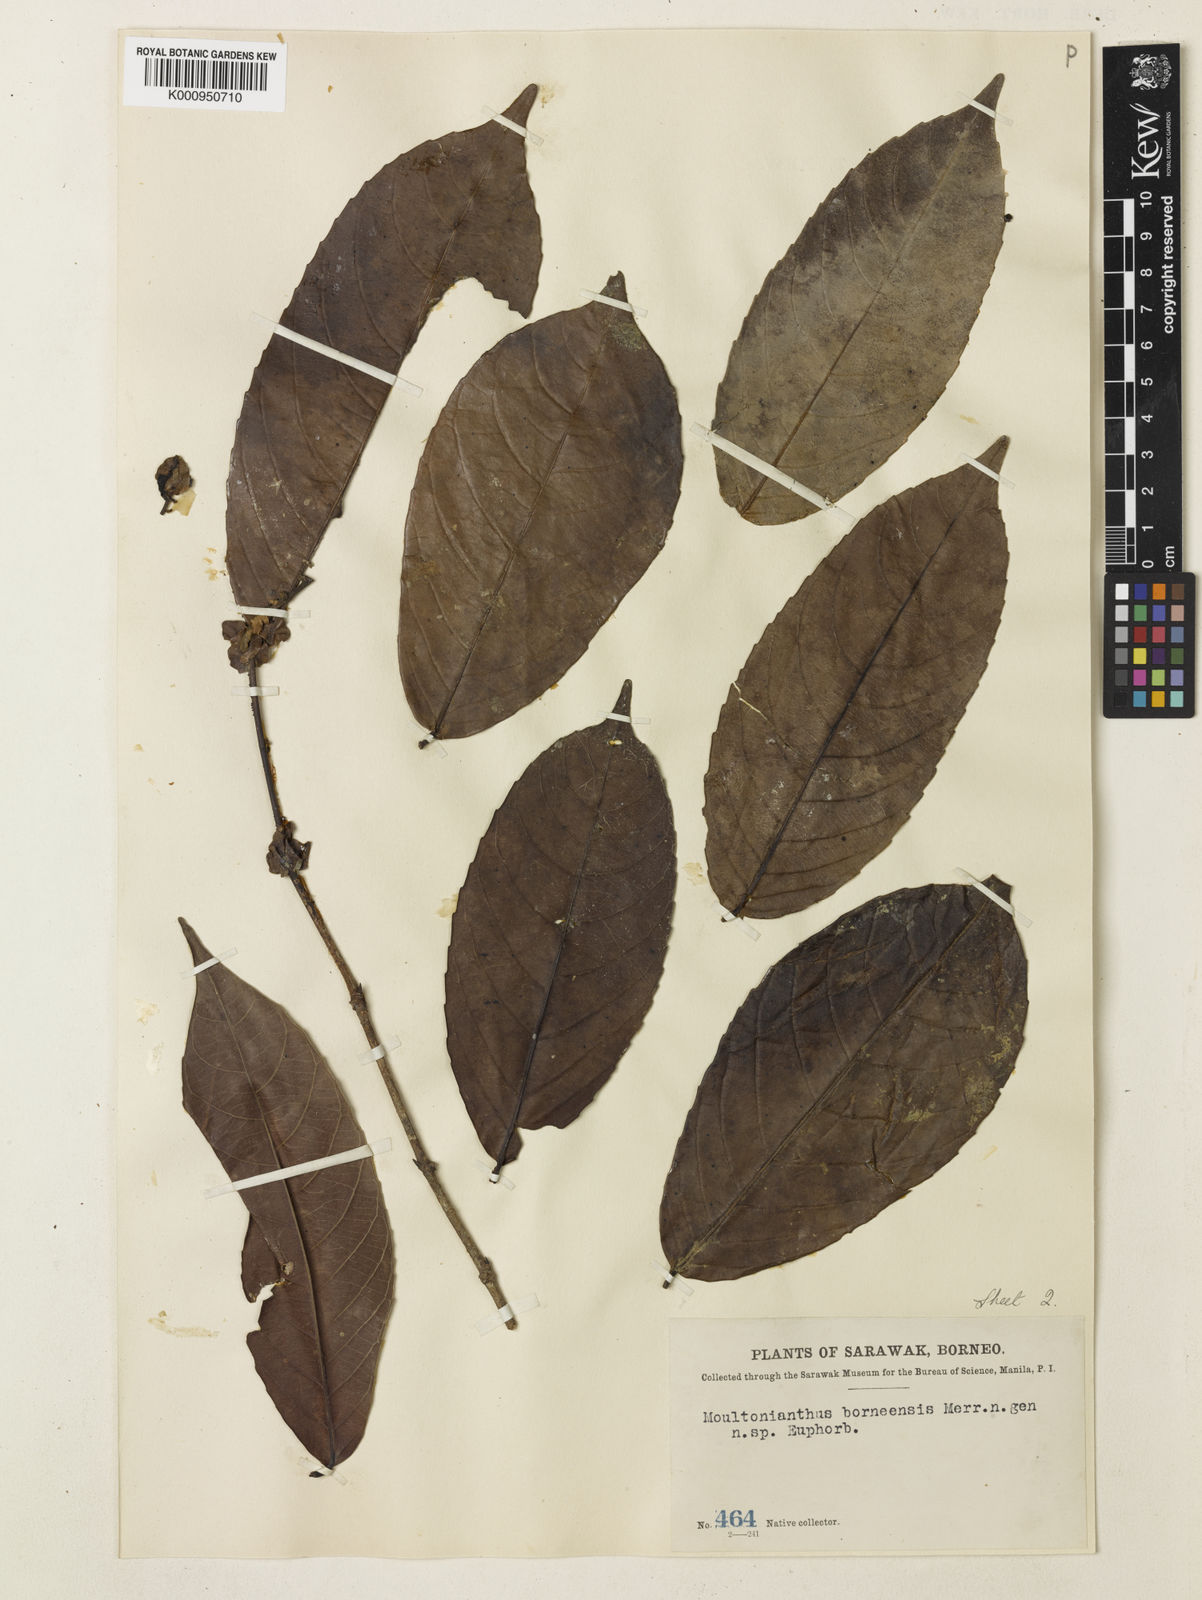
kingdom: Plantae
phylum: Tracheophyta
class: Magnoliopsida
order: Malpighiales
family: Euphorbiaceae
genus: Moultonianthus
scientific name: Moultonianthus leembruggianus
